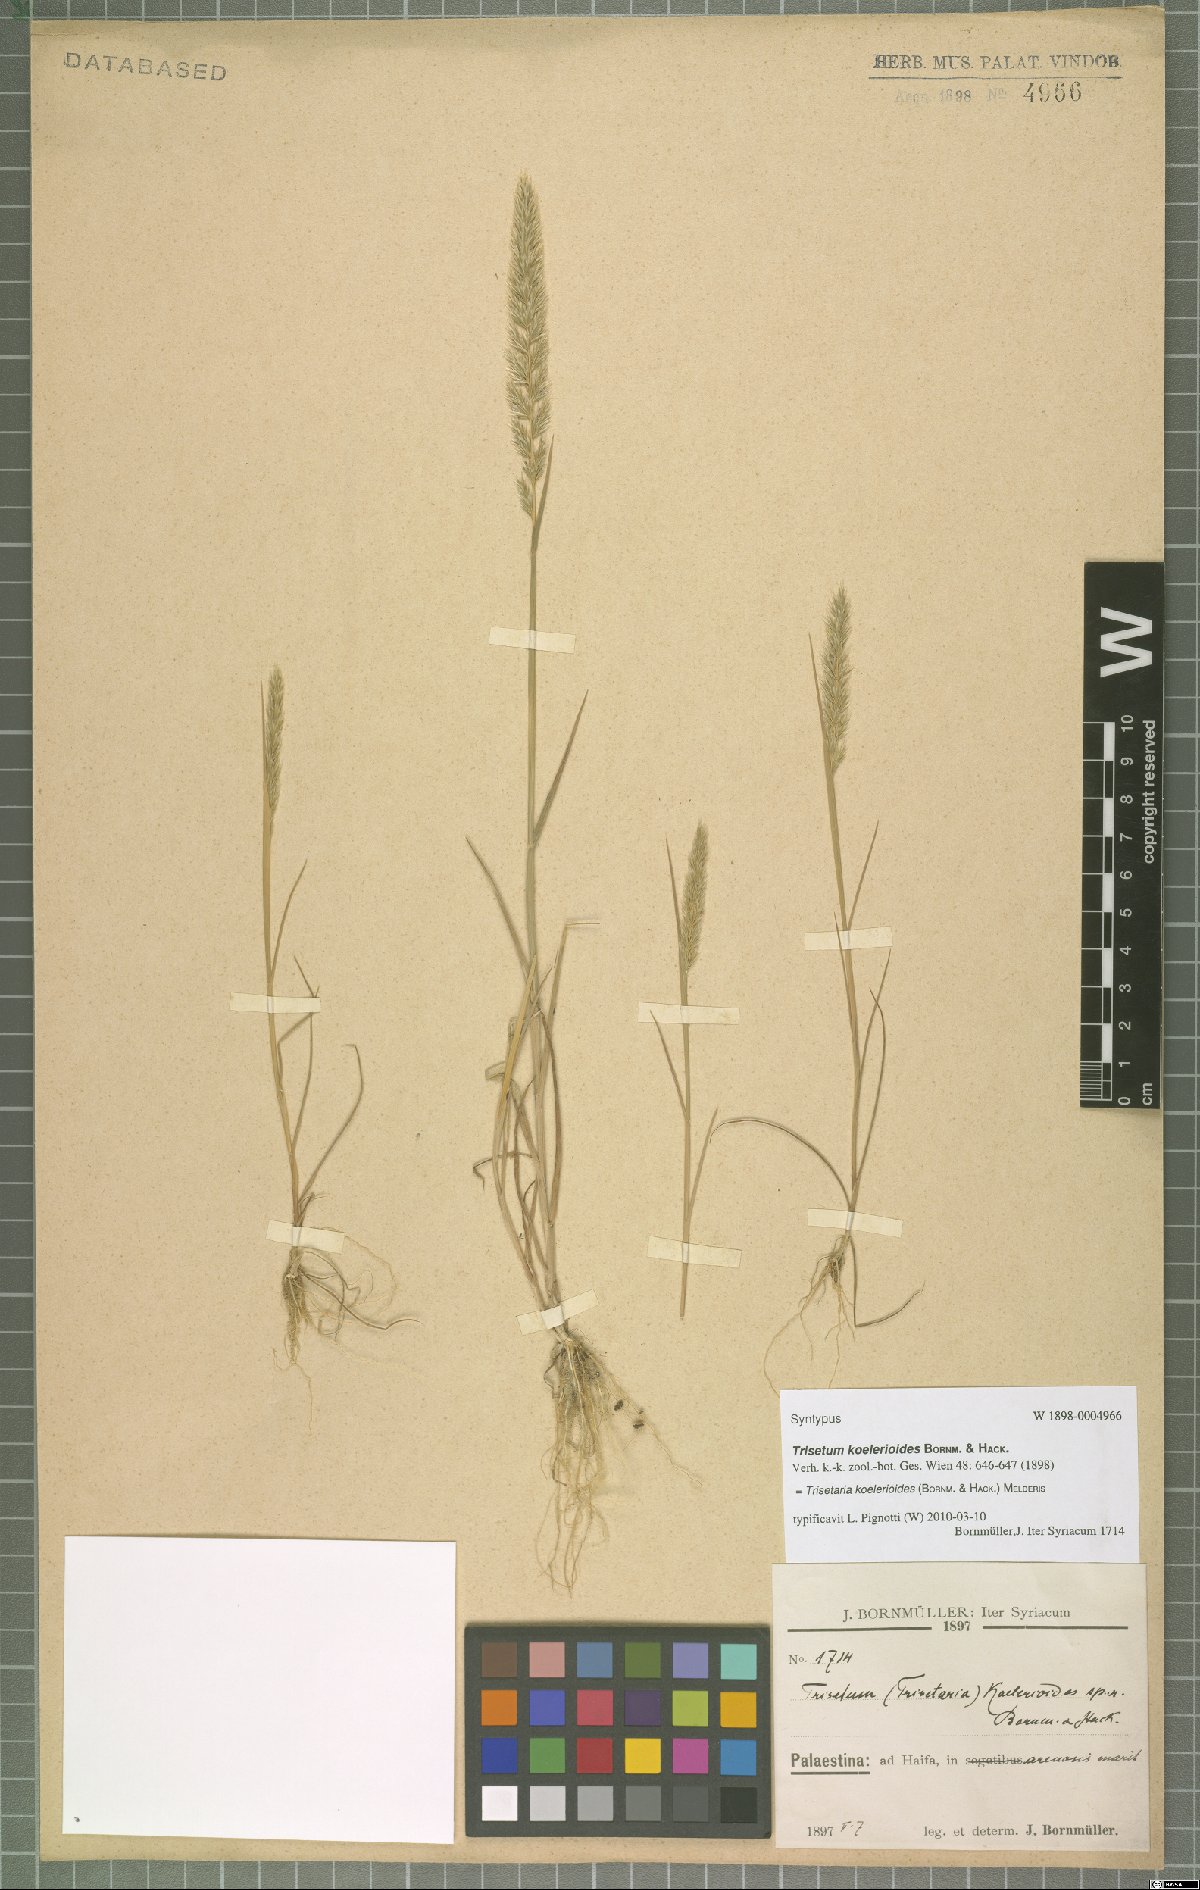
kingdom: Plantae
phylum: Tracheophyta
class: Liliopsida
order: Poales
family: Poaceae
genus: Trisetaria
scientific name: Trisetaria koelerioides
